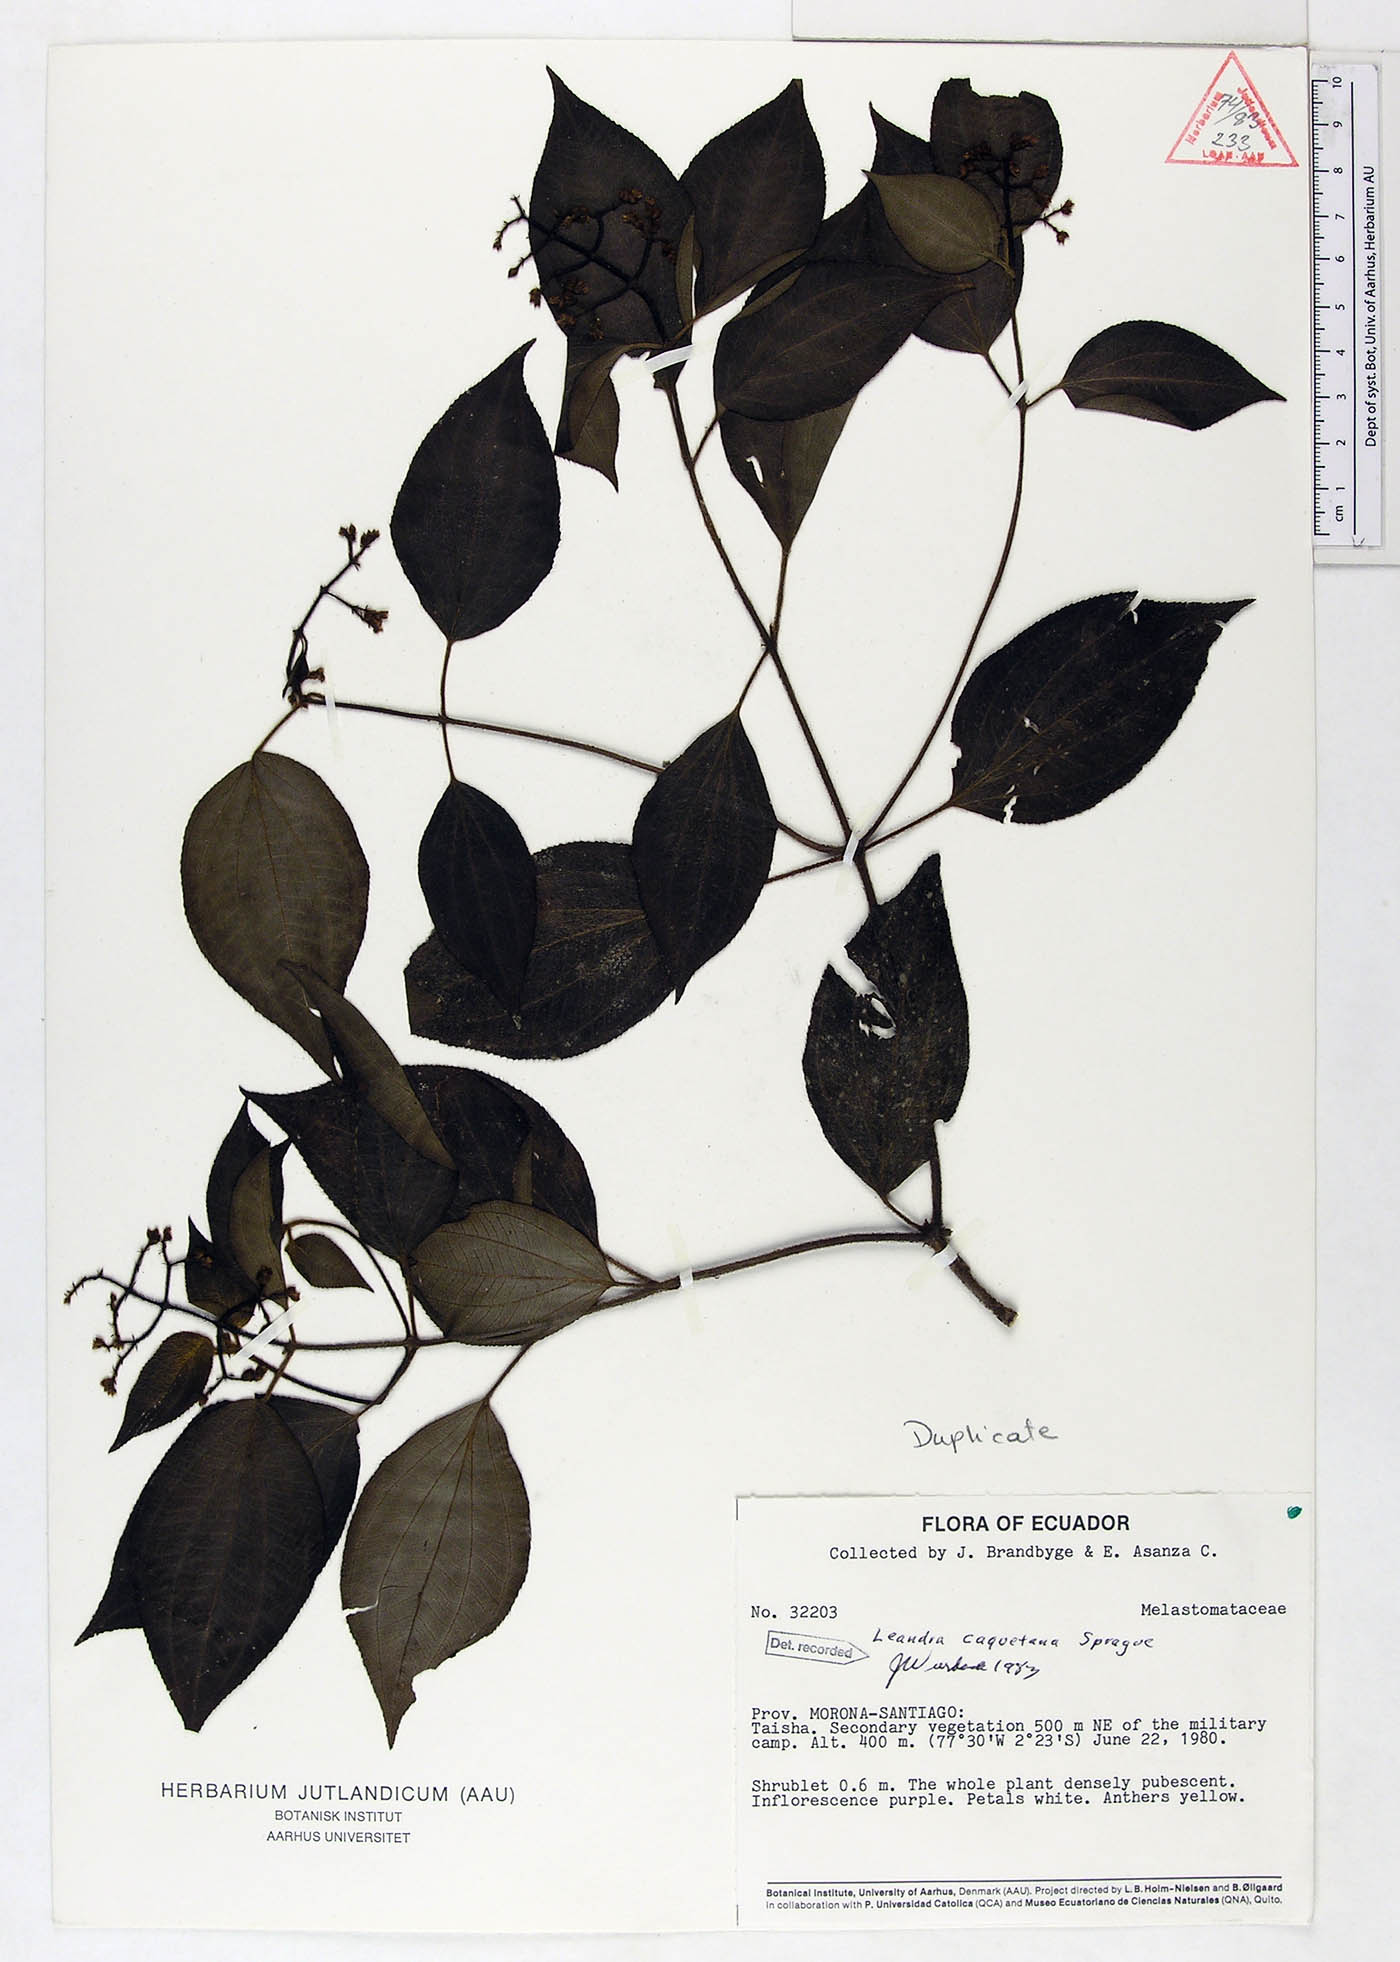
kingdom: Plantae
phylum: Tracheophyta
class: Magnoliopsida
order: Myrtales
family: Melastomataceae
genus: Miconia
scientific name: Miconia secuncaquetana
